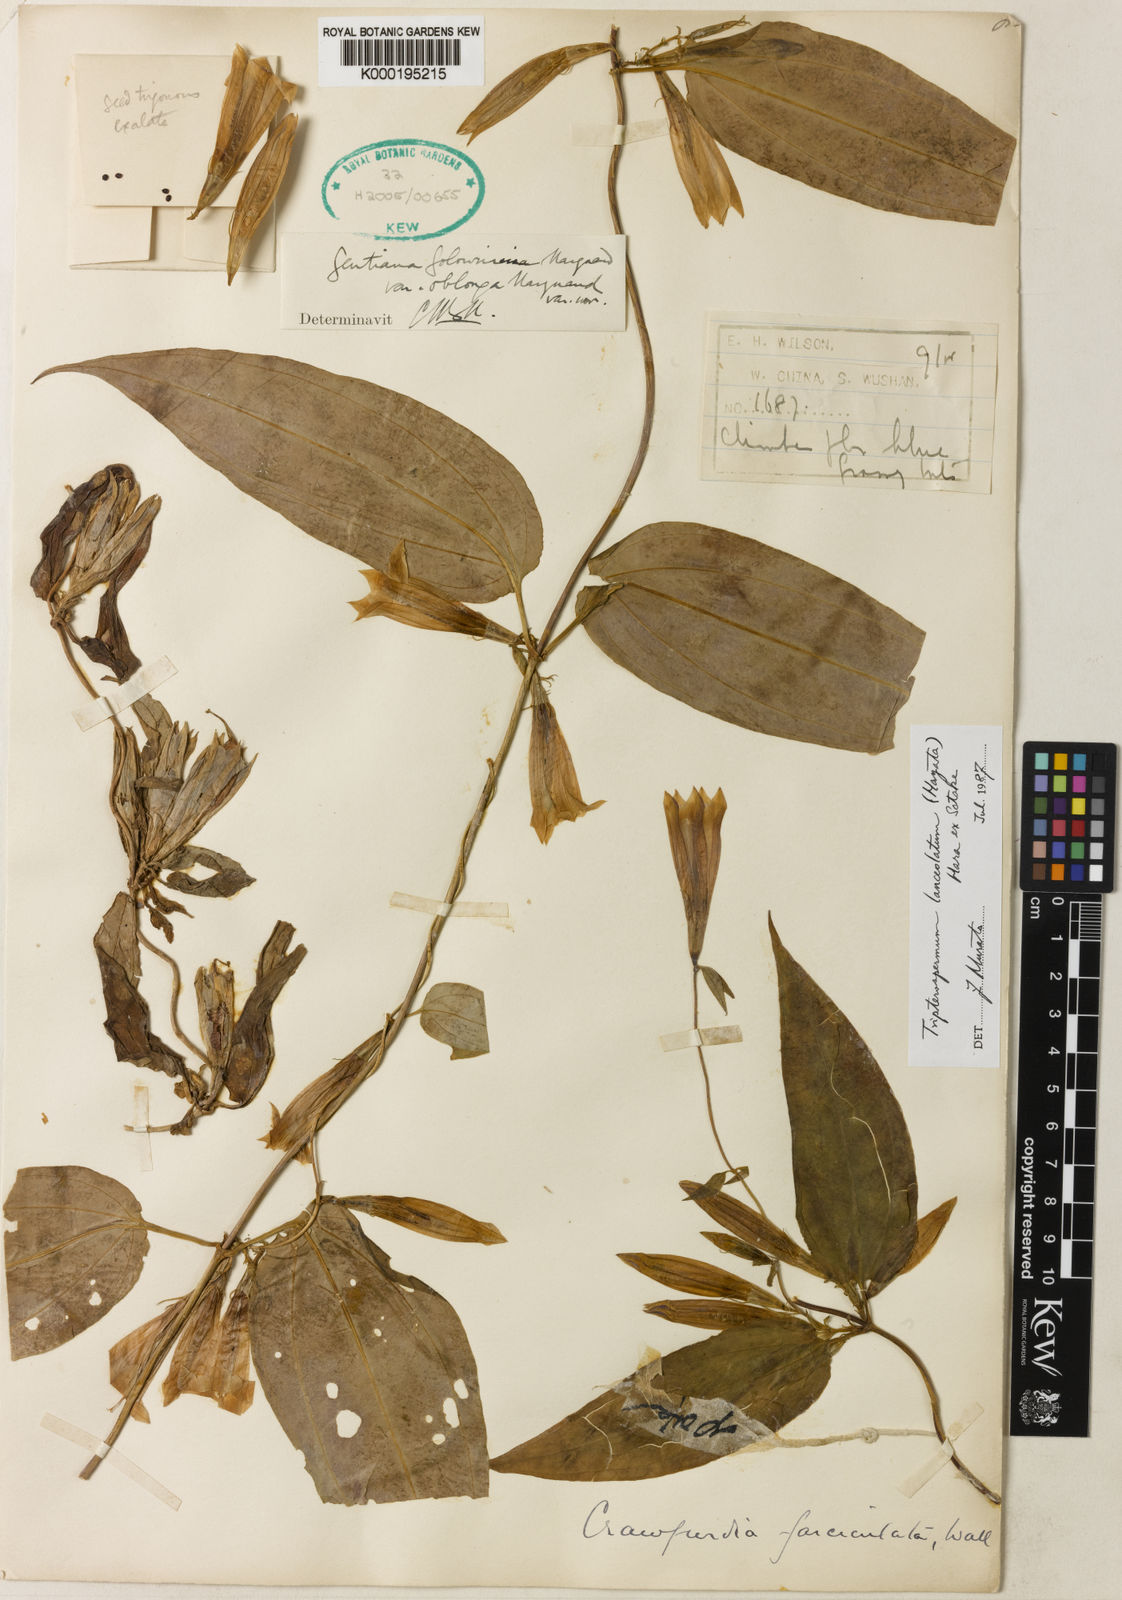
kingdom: Plantae
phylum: Tracheophyta
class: Magnoliopsida
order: Gentianales
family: Gentianaceae
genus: Tripterospermum
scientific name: Tripterospermum lanceolatum
